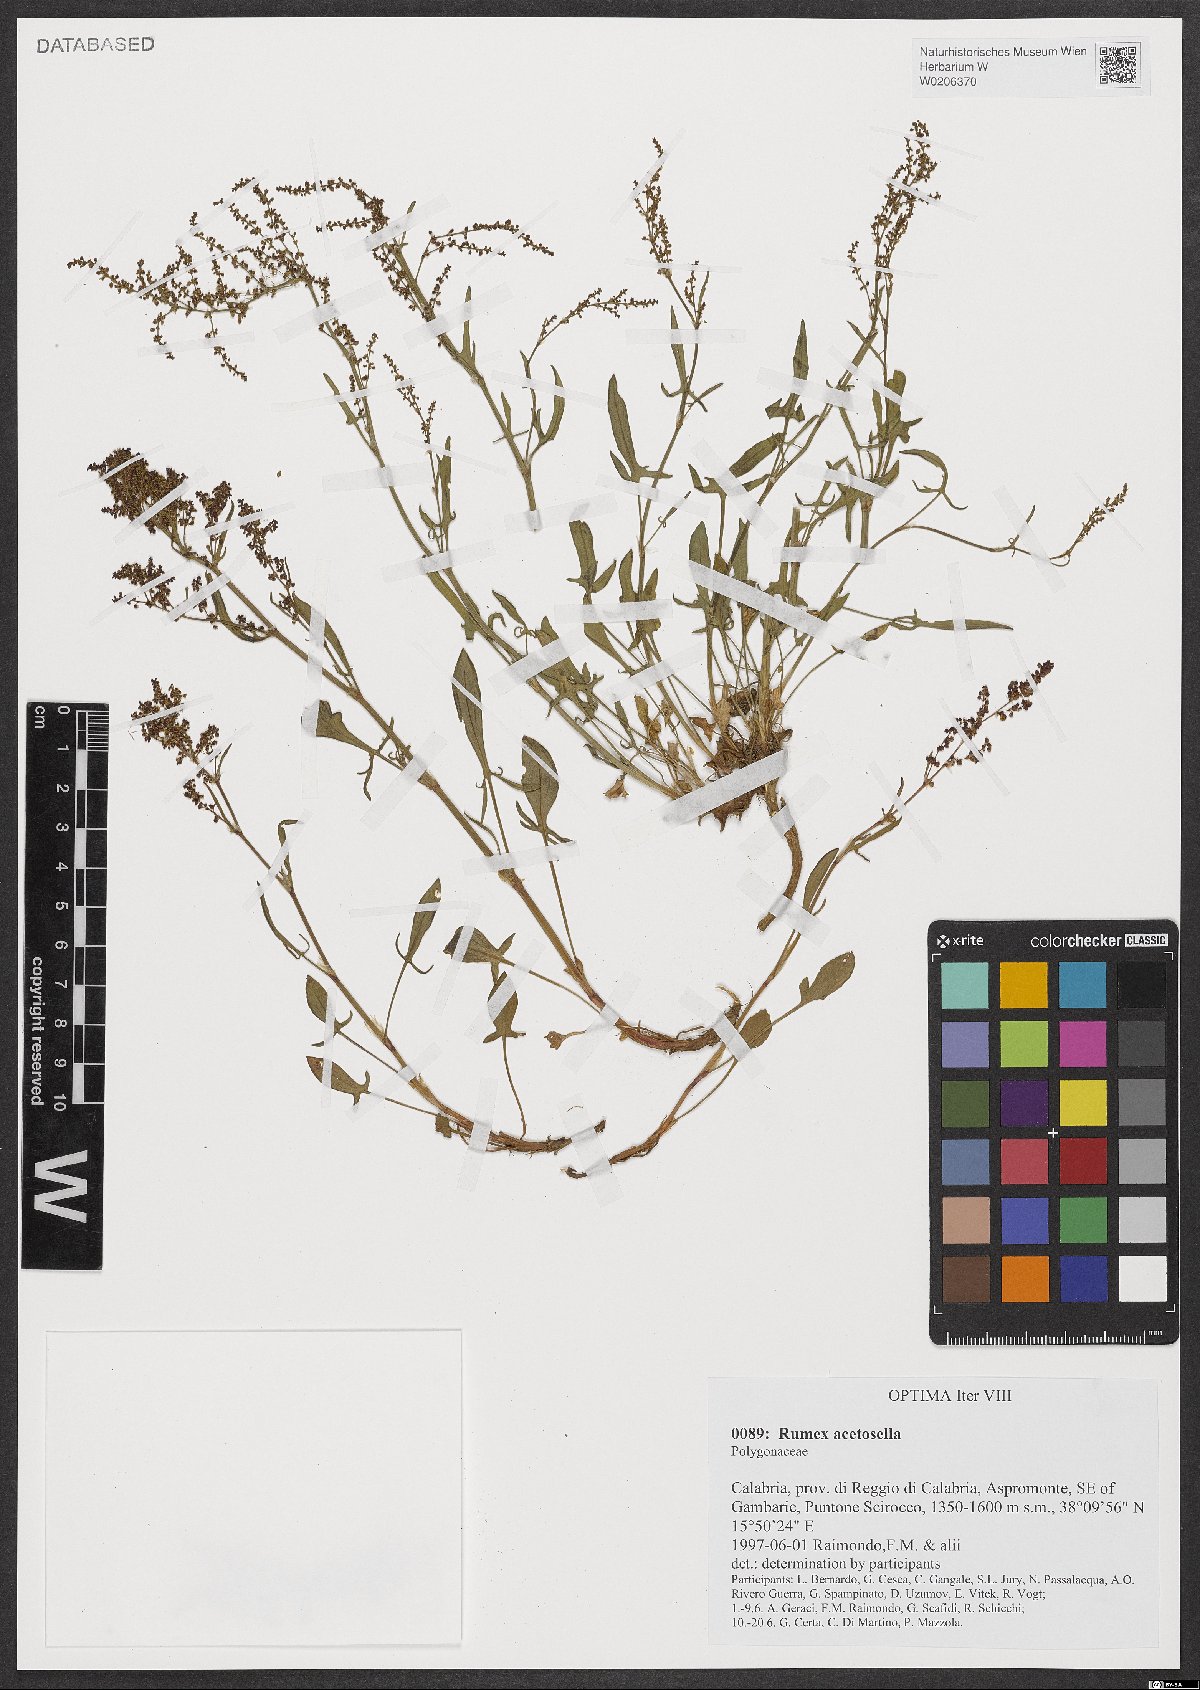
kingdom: Plantae
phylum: Tracheophyta
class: Magnoliopsida
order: Caryophyllales
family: Polygonaceae
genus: Rumex
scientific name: Rumex acetosella
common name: Common sheep sorrel
